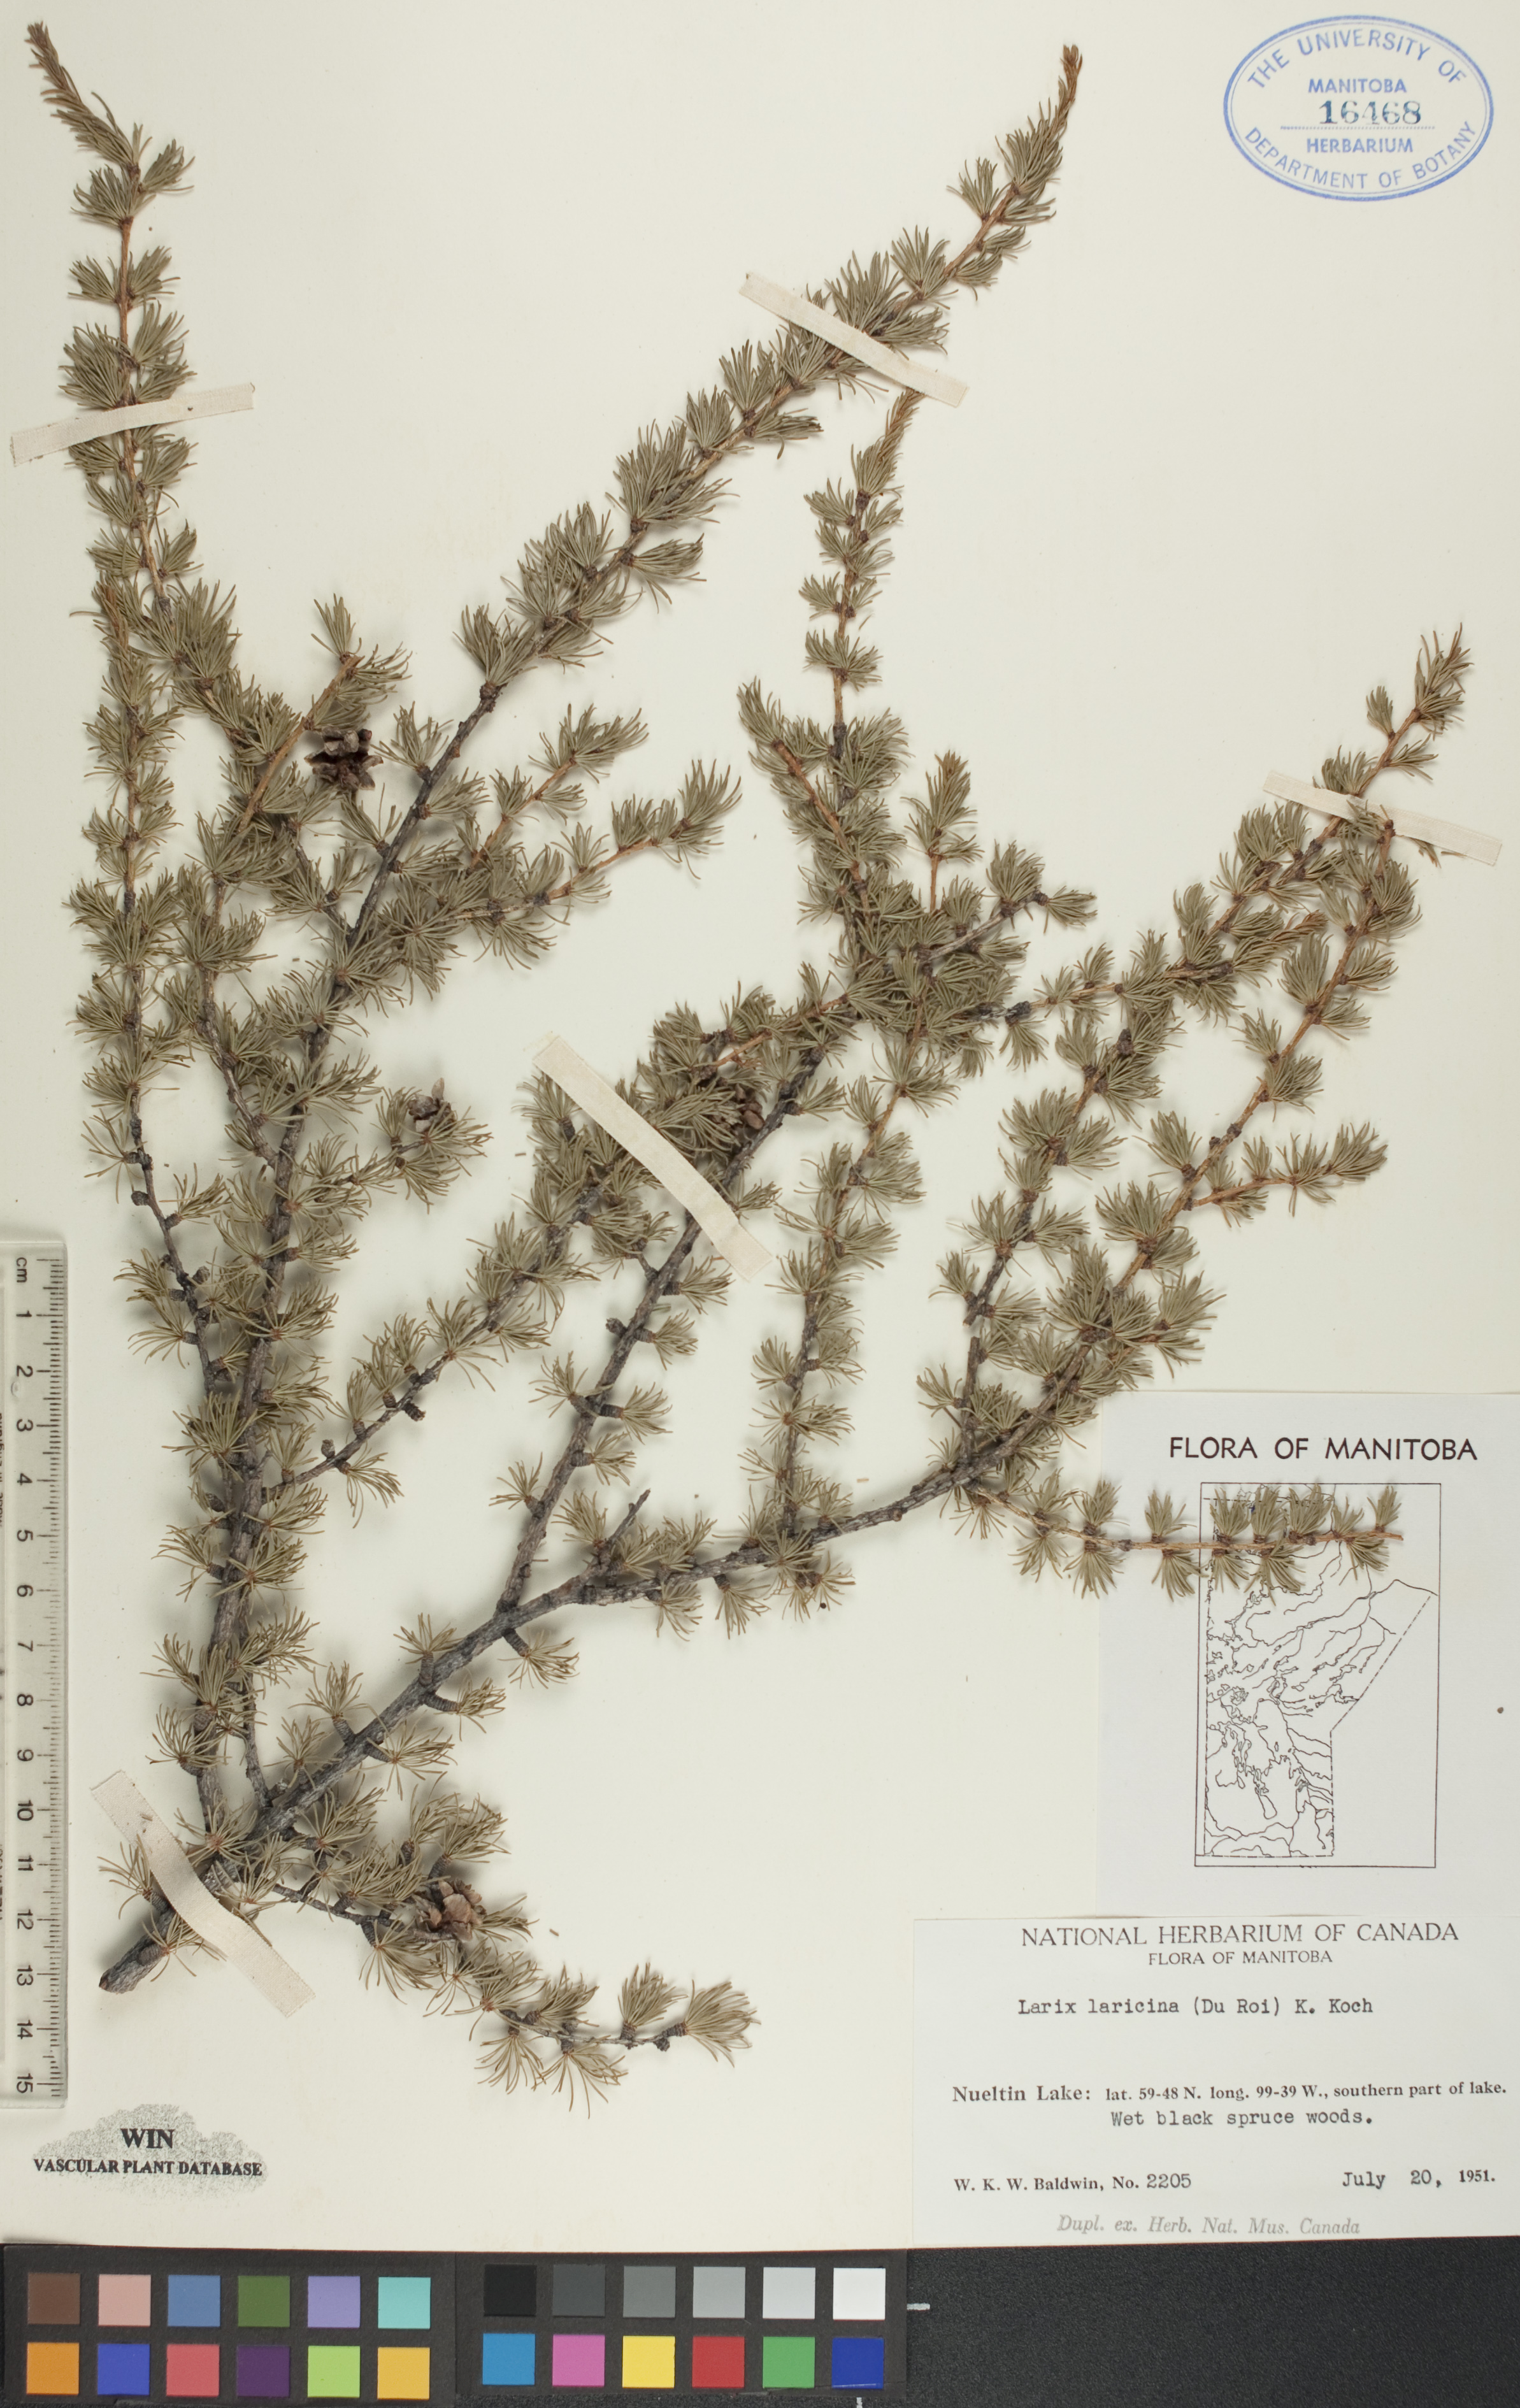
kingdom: Plantae
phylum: Tracheophyta
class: Pinopsida
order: Pinales
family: Pinaceae
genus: Larix
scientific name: Larix laricina
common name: American larch
